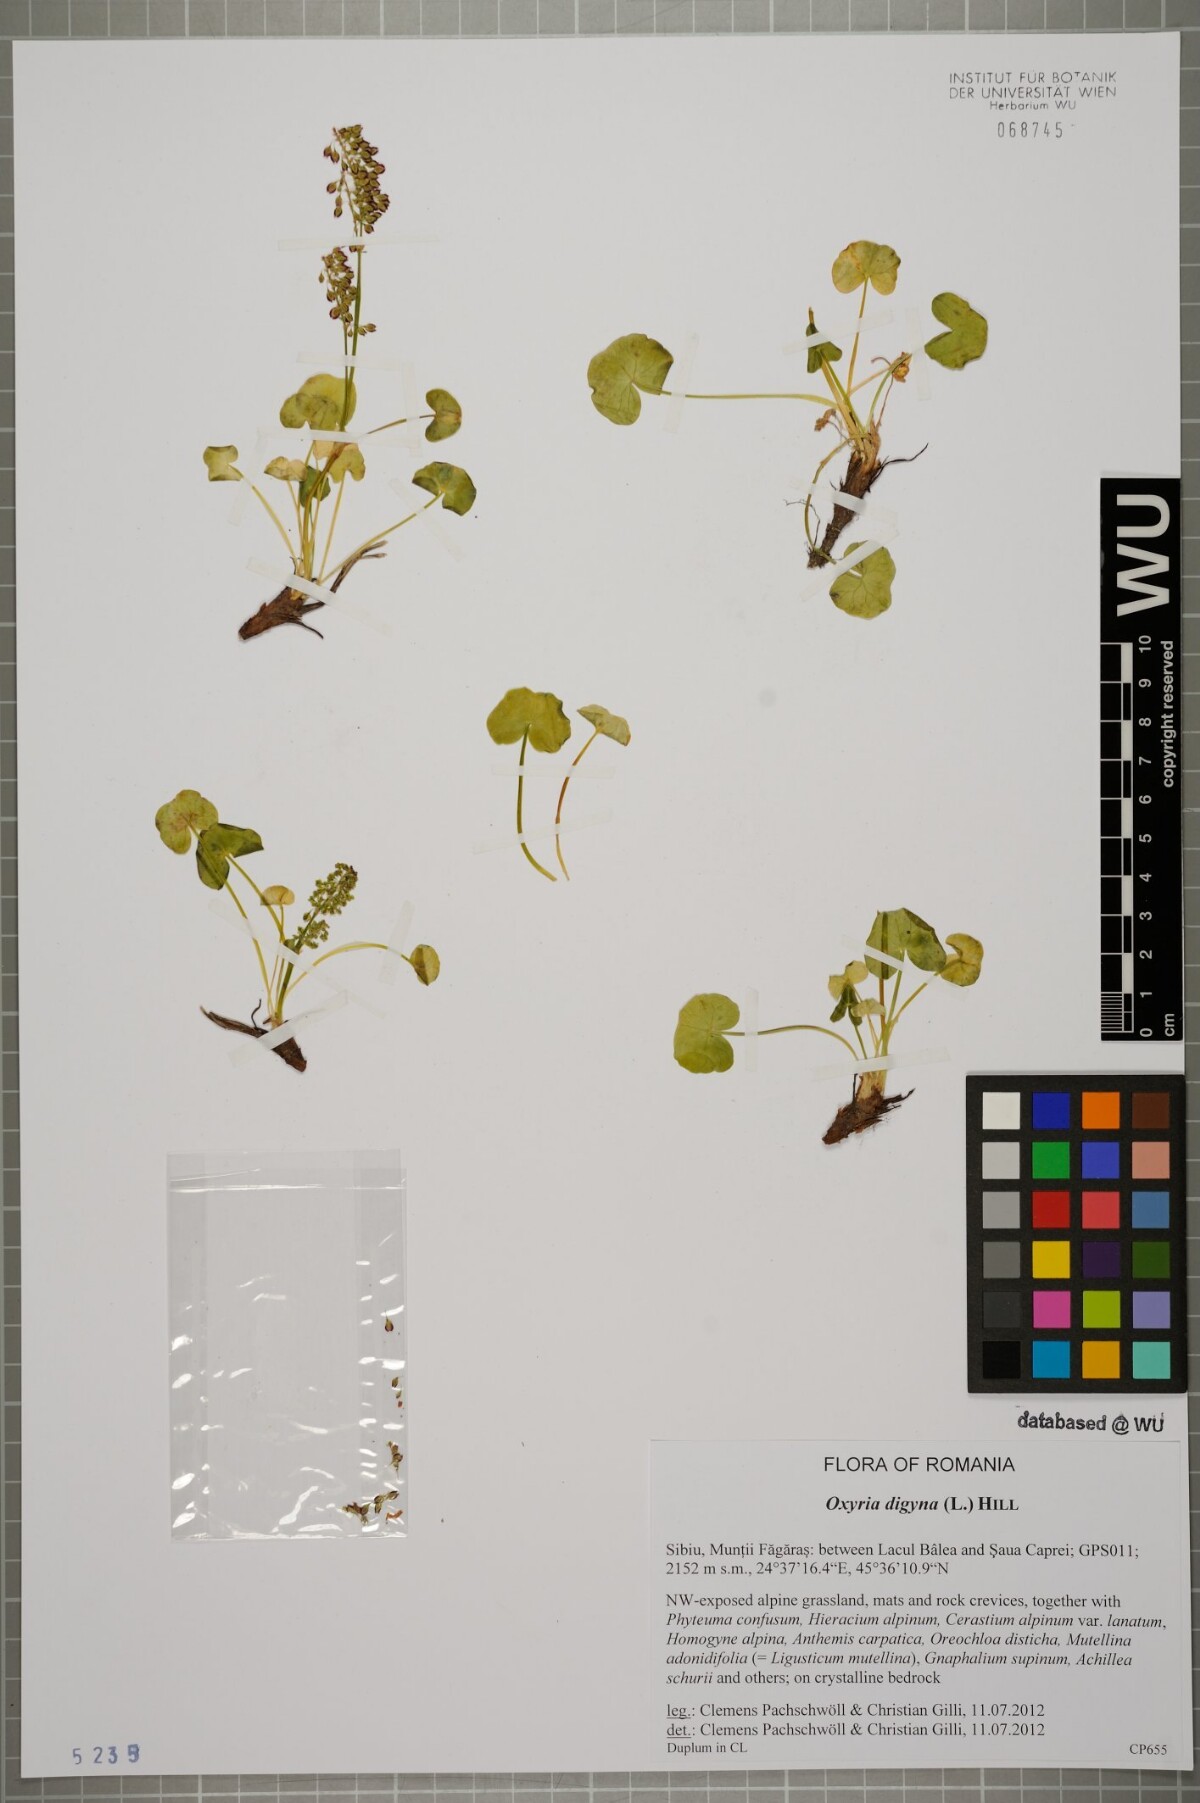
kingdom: Plantae
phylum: Tracheophyta
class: Magnoliopsida
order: Caryophyllales
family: Polygonaceae
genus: Oxyria
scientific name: Oxyria digyna
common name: Alpine mountain-sorrel
